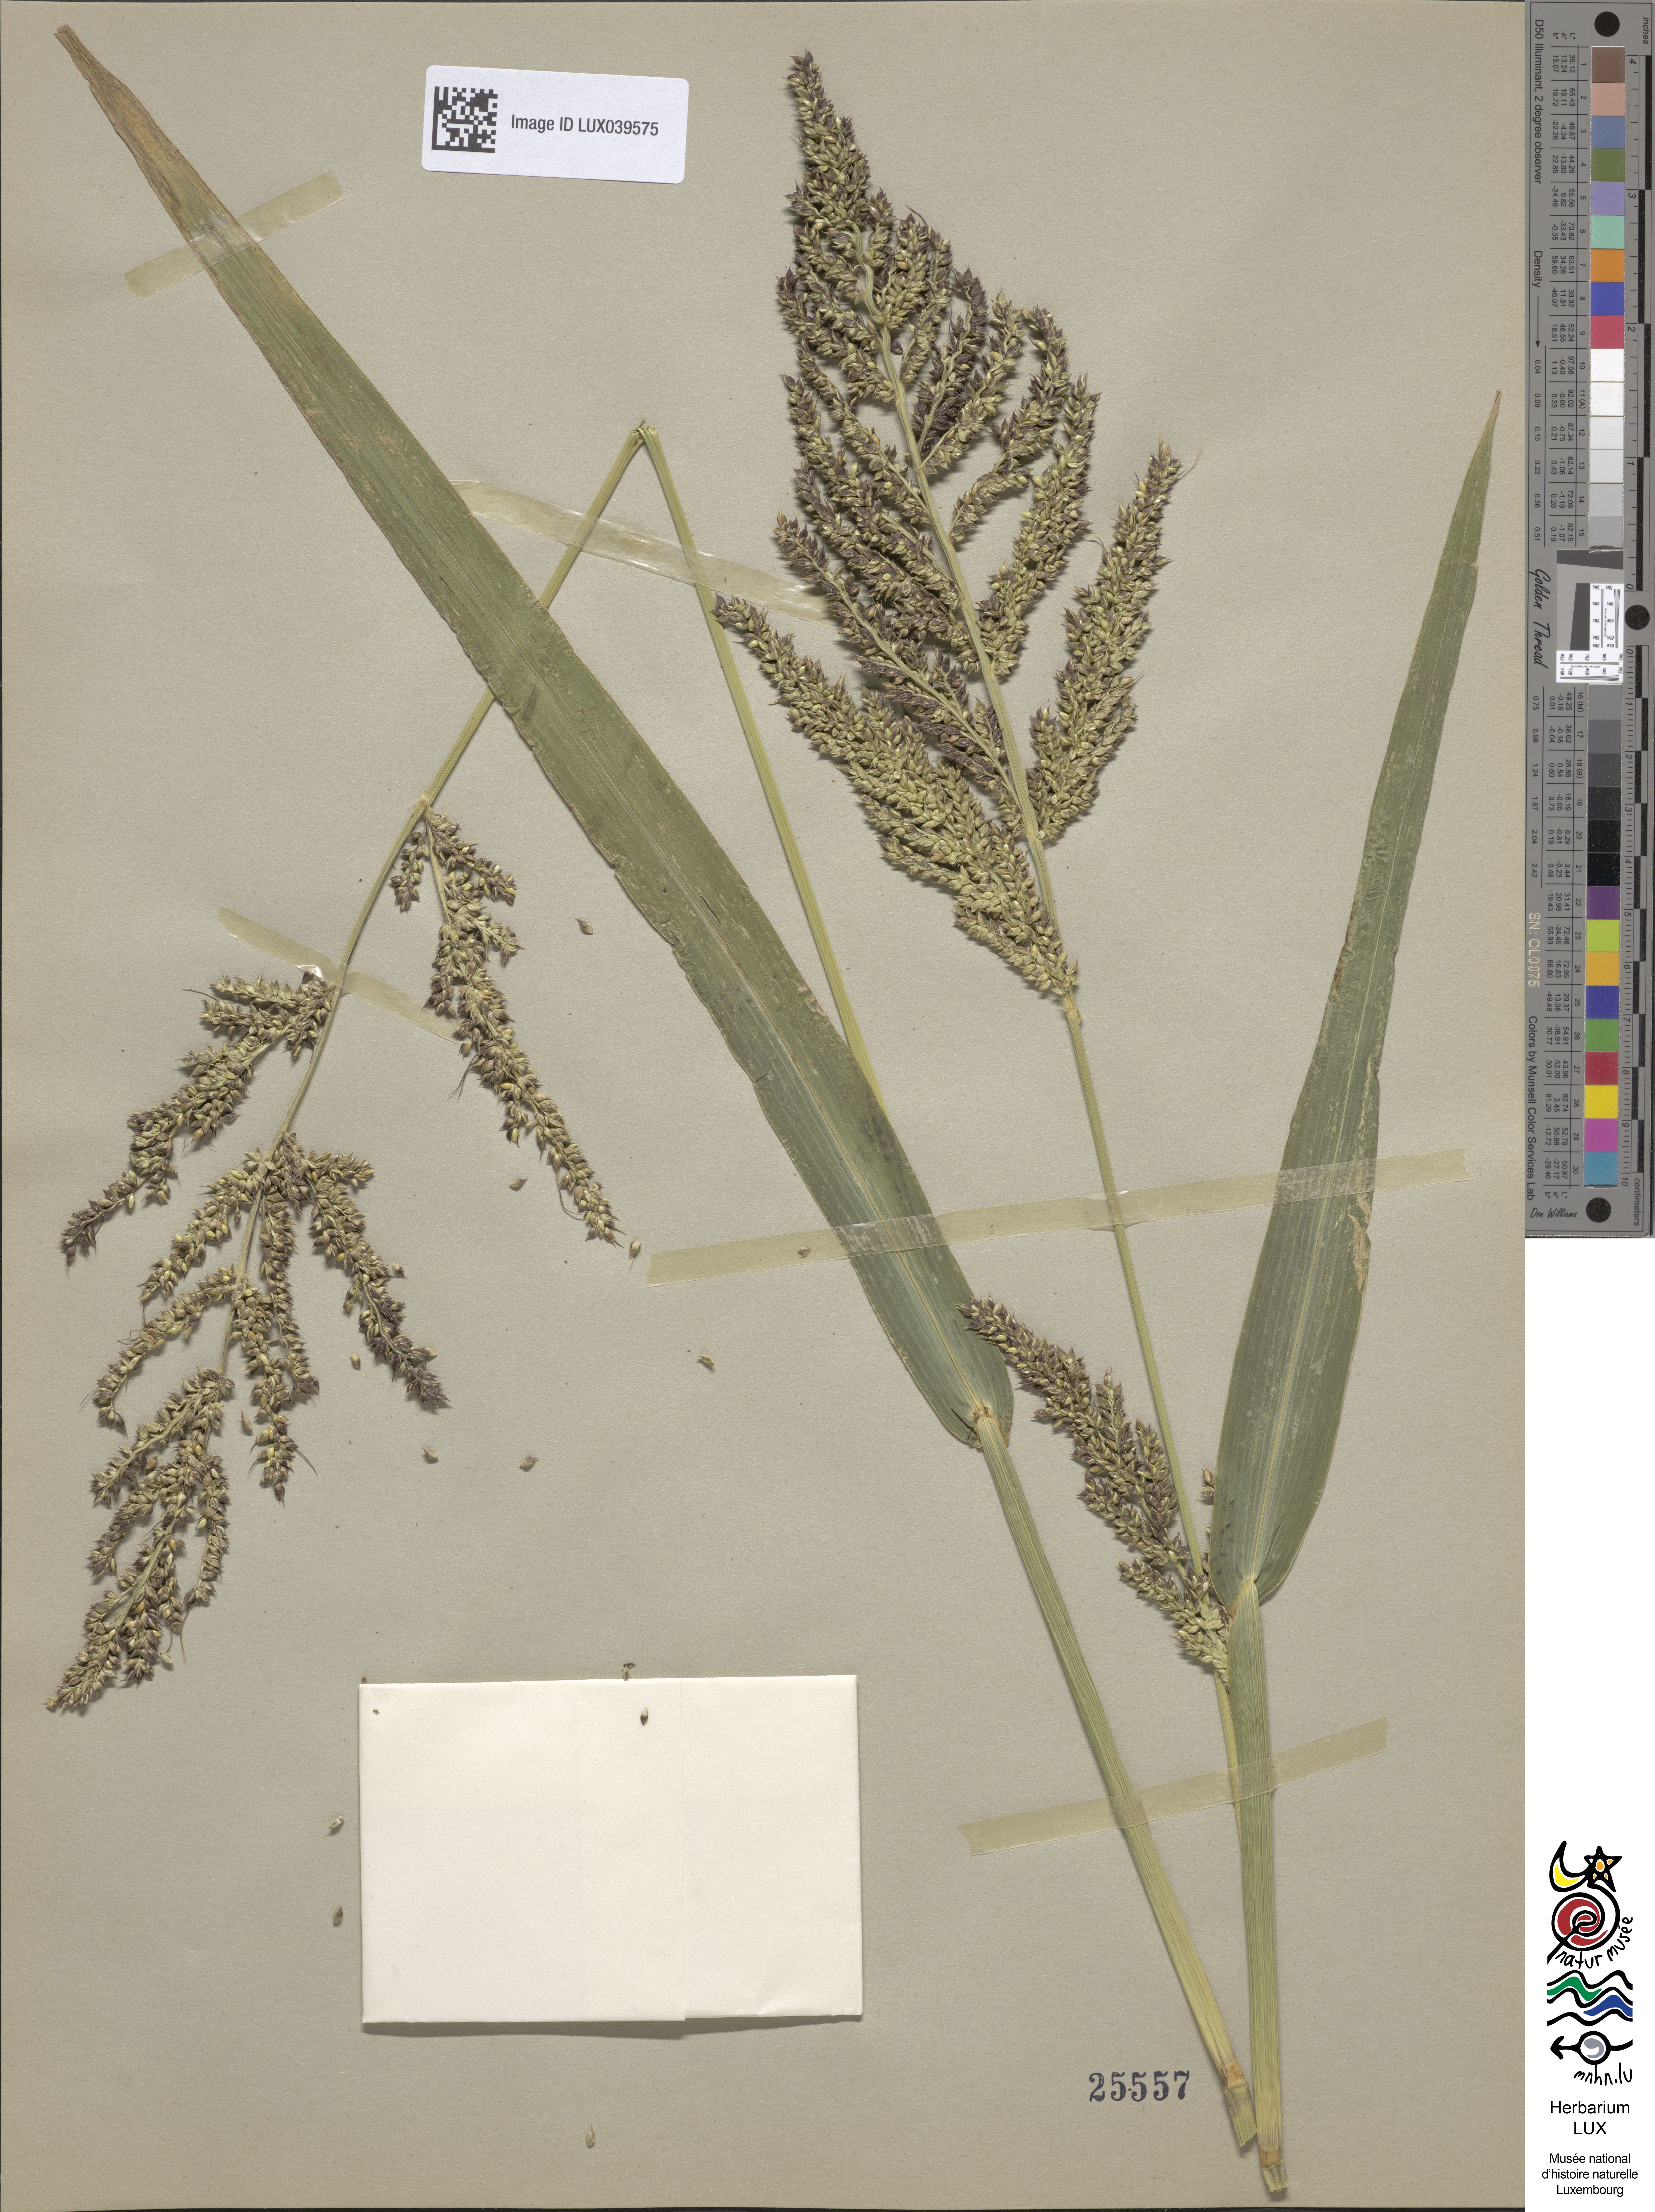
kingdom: Plantae
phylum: Tracheophyta
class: Liliopsida
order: Poales
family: Poaceae
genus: Echinochloa
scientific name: Echinochloa crus-galli
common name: Cockspur
